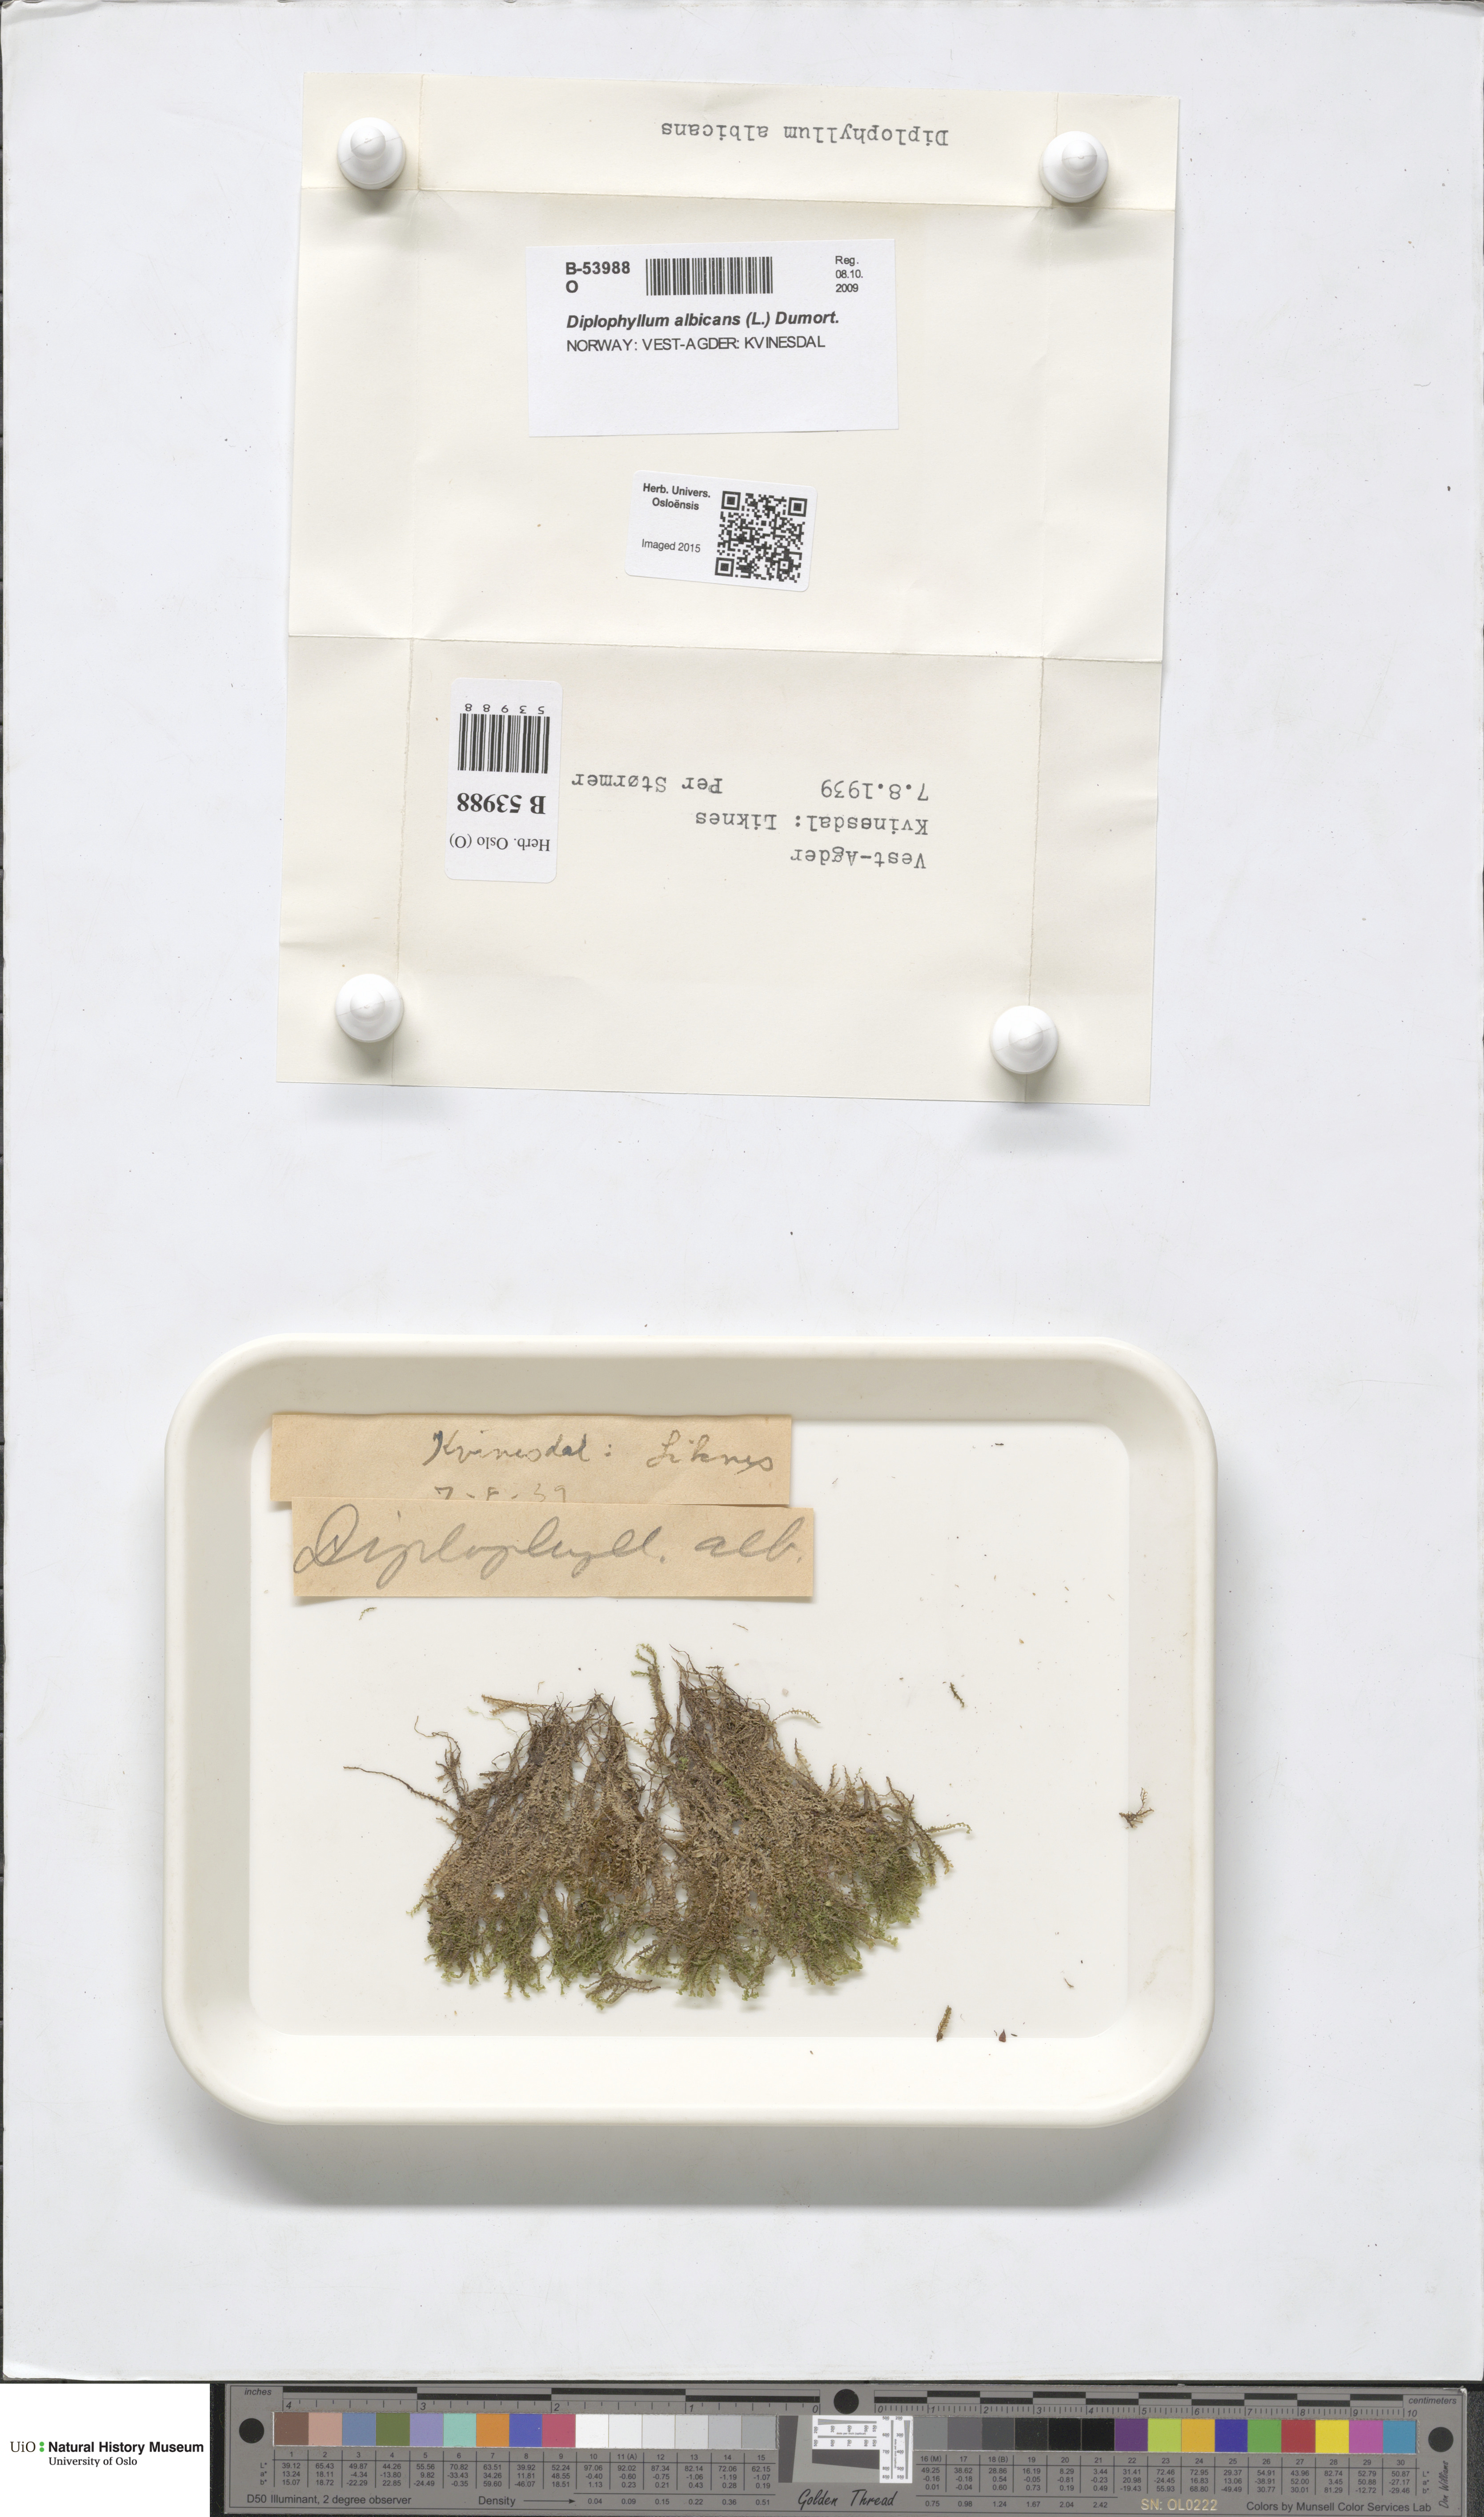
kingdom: Plantae
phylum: Marchantiophyta
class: Jungermanniopsida
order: Jungermanniales
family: Scapaniaceae
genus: Diplophyllum
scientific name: Diplophyllum albicans
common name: White earwort
